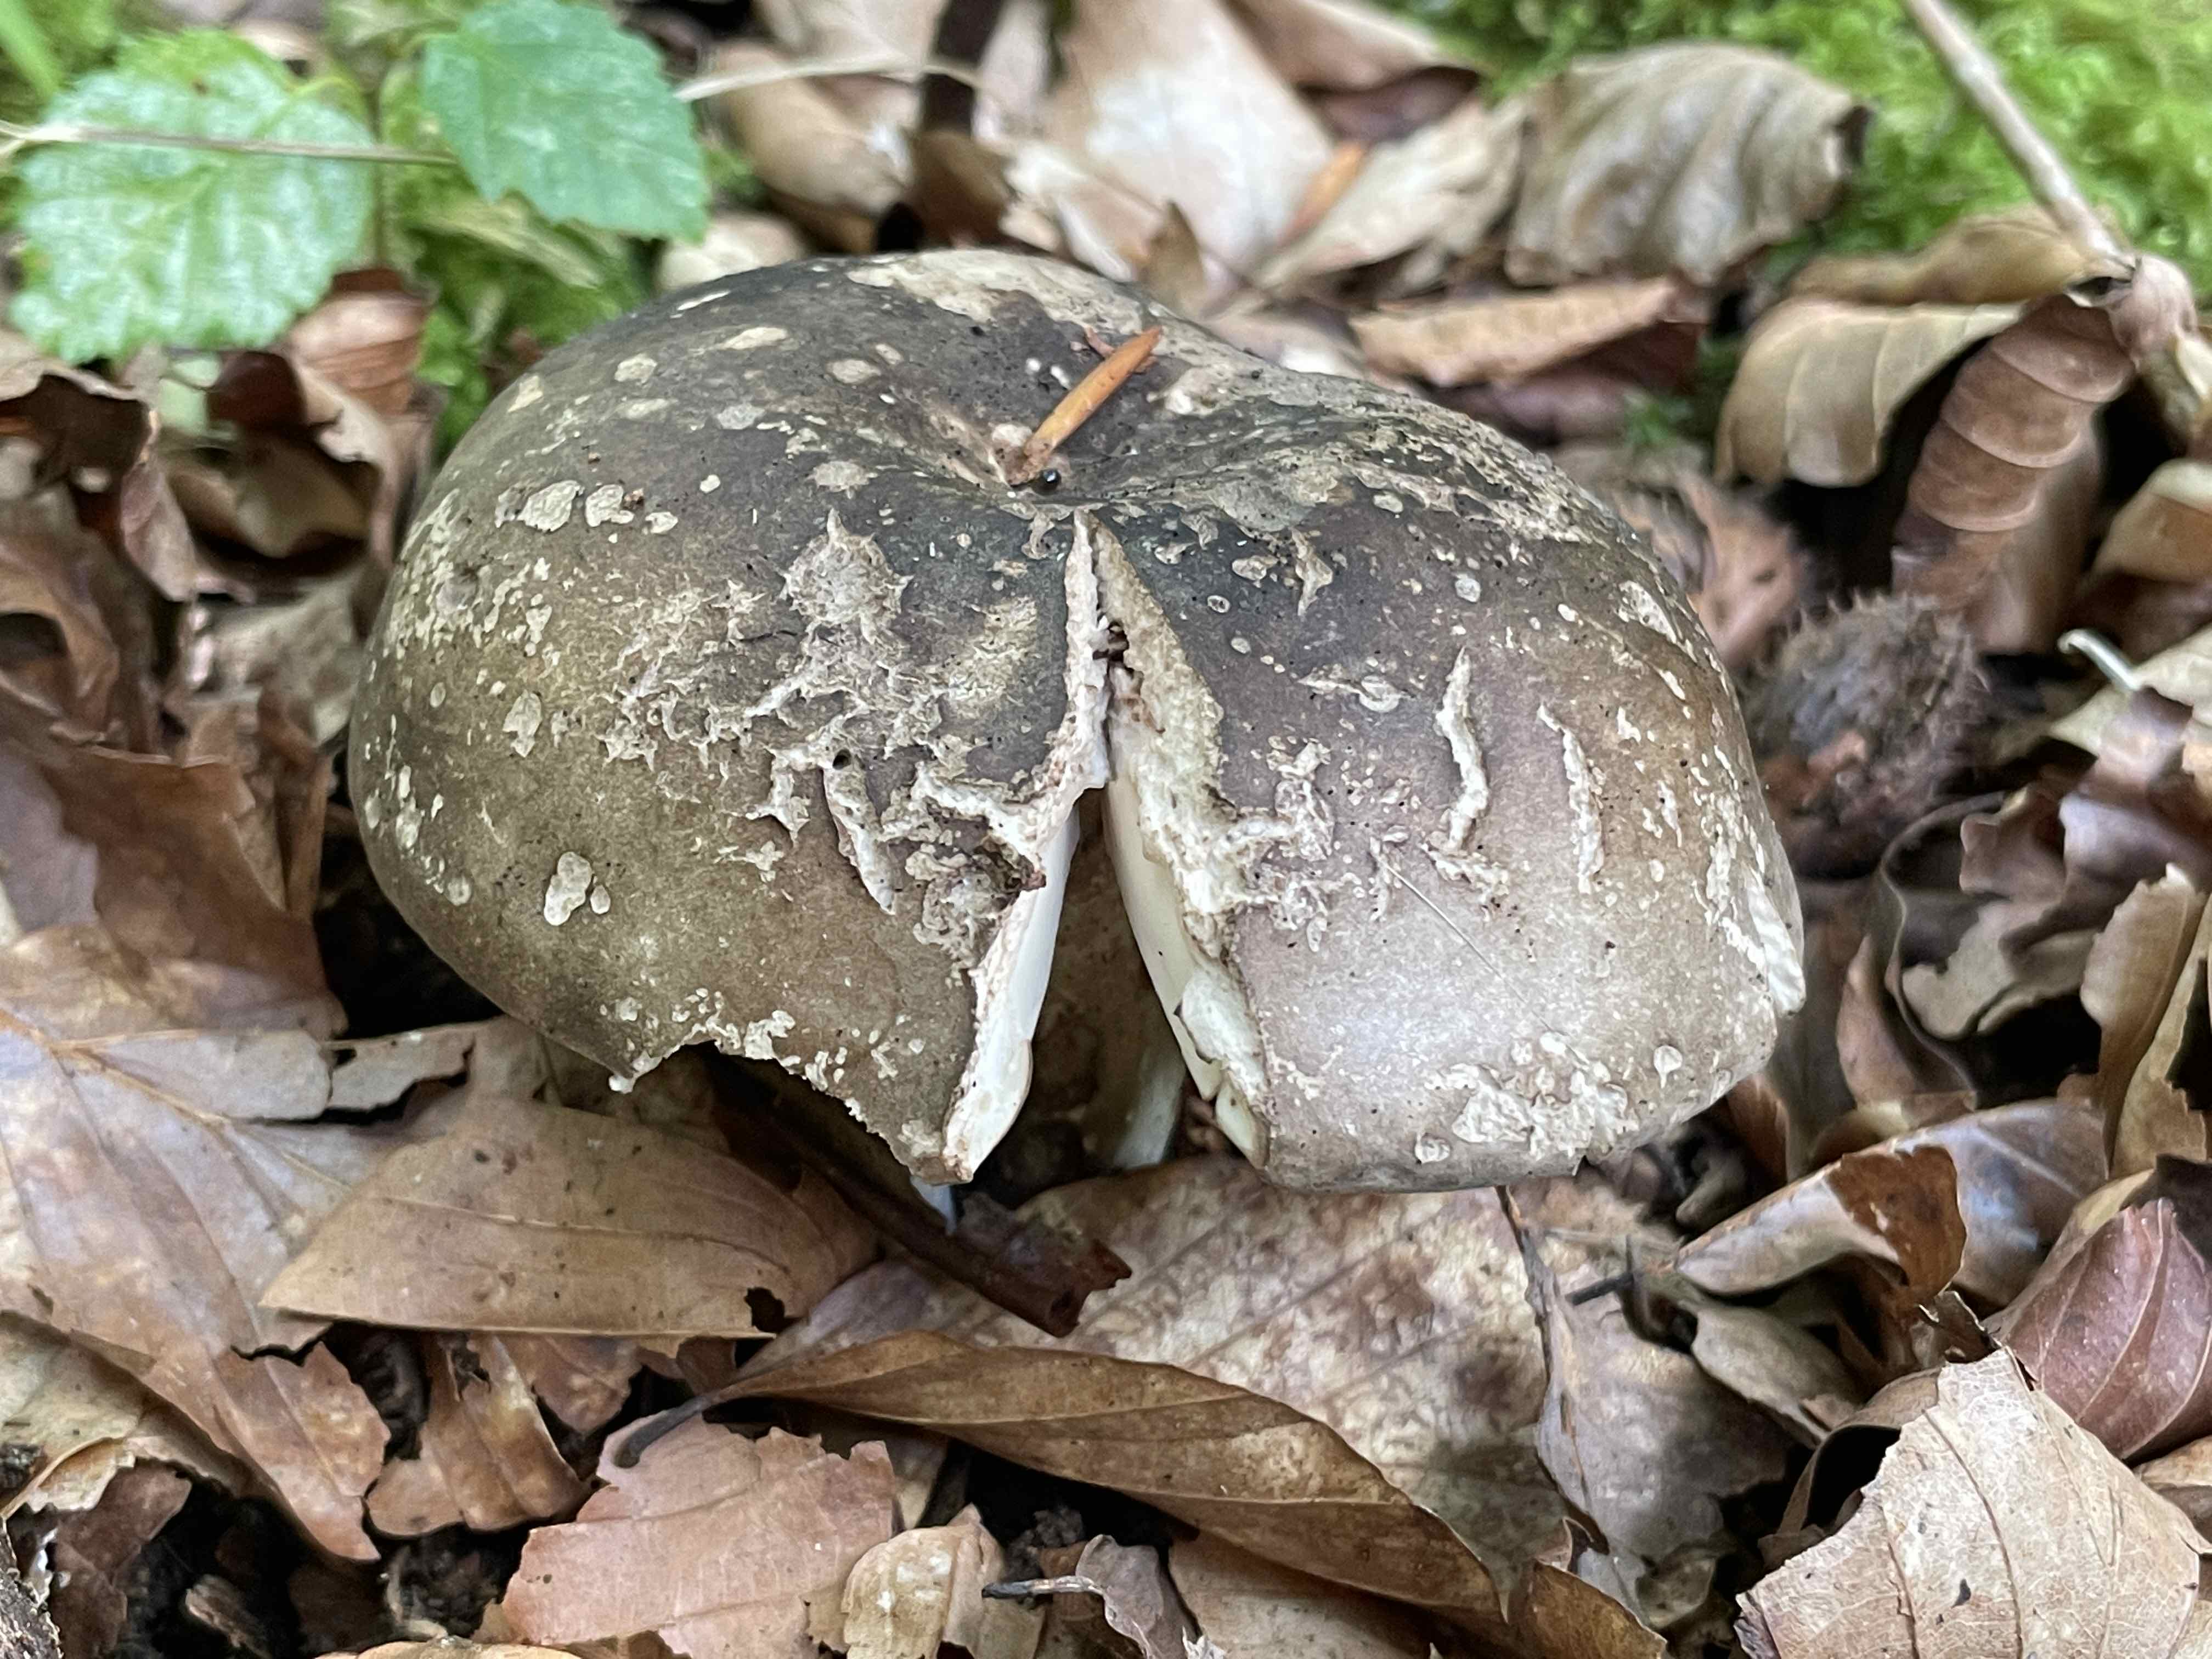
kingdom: Fungi
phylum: Basidiomycota
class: Agaricomycetes
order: Russulales
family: Russulaceae
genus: Russula
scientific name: Russula adusta
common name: sværtende skørhat
